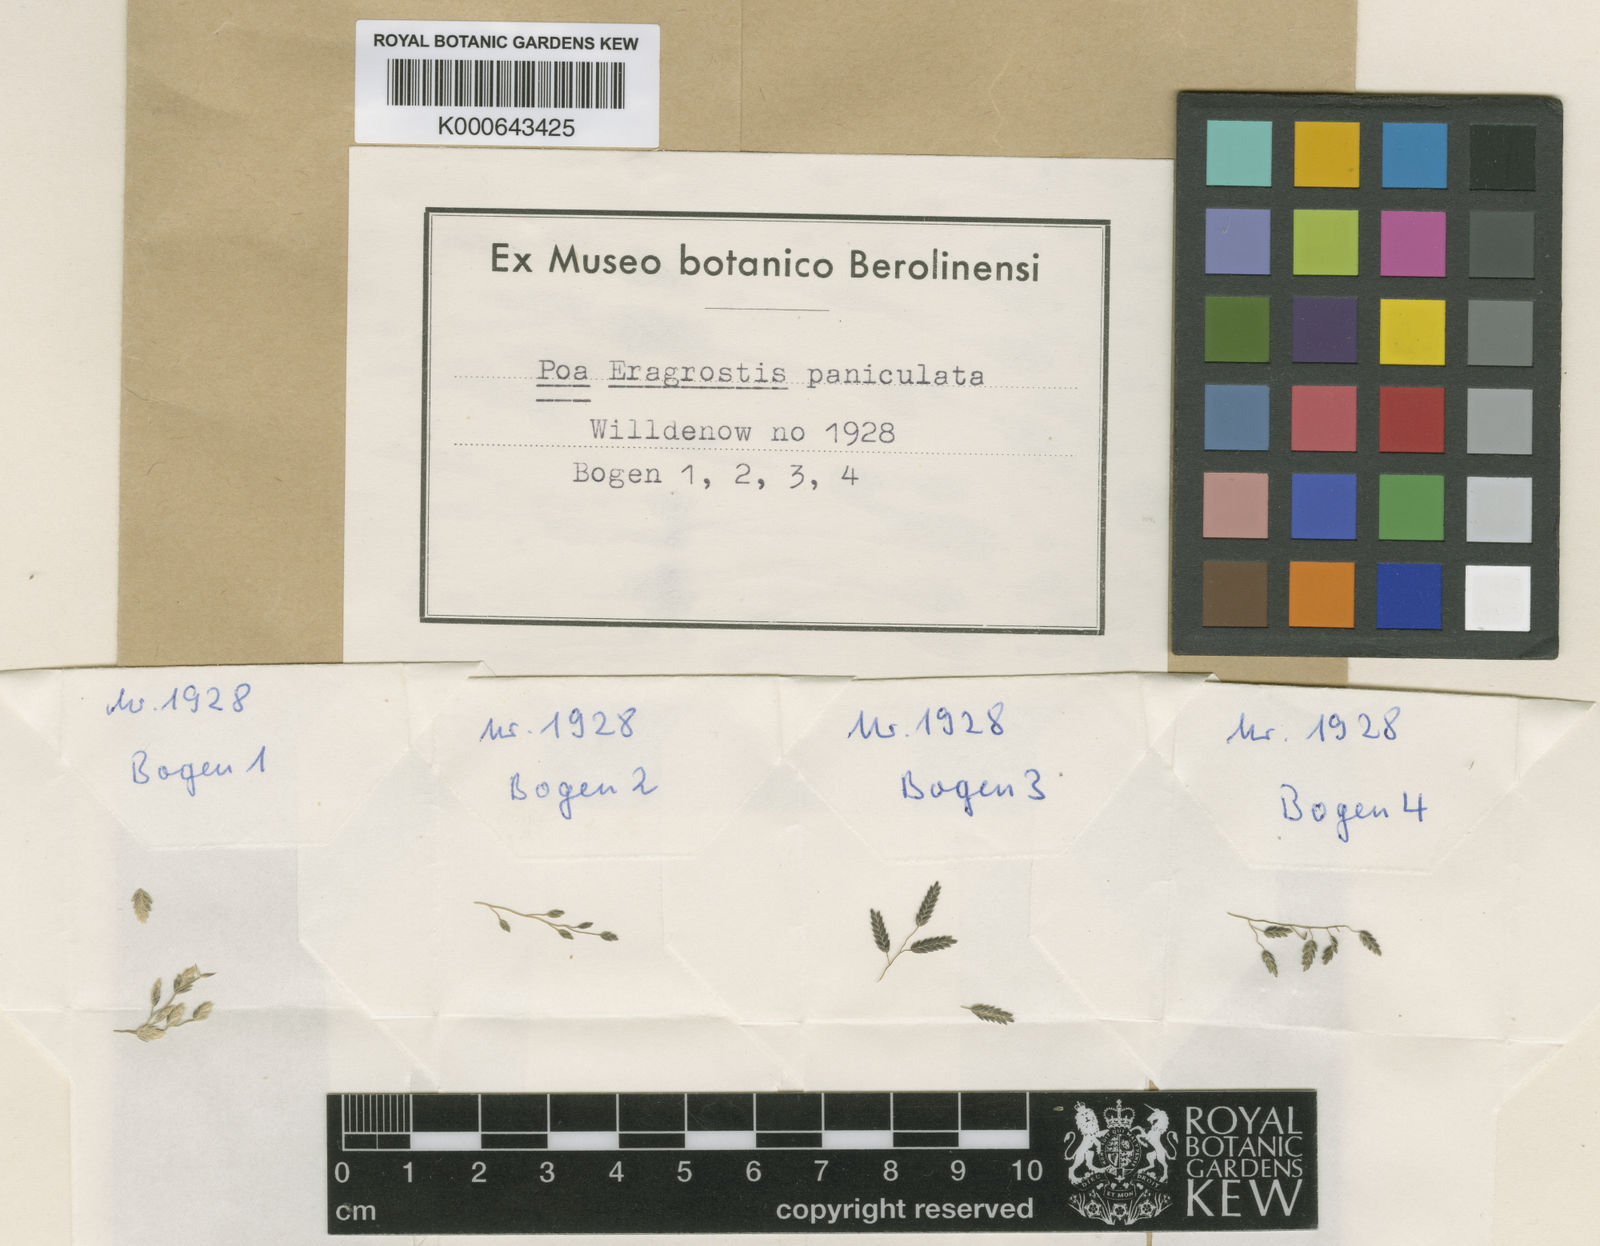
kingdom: Plantae
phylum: Tracheophyta
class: Liliopsida
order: Poales
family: Poaceae
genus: Eragrostis
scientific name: Eragrostis cilianensis
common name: Stinkgrass
